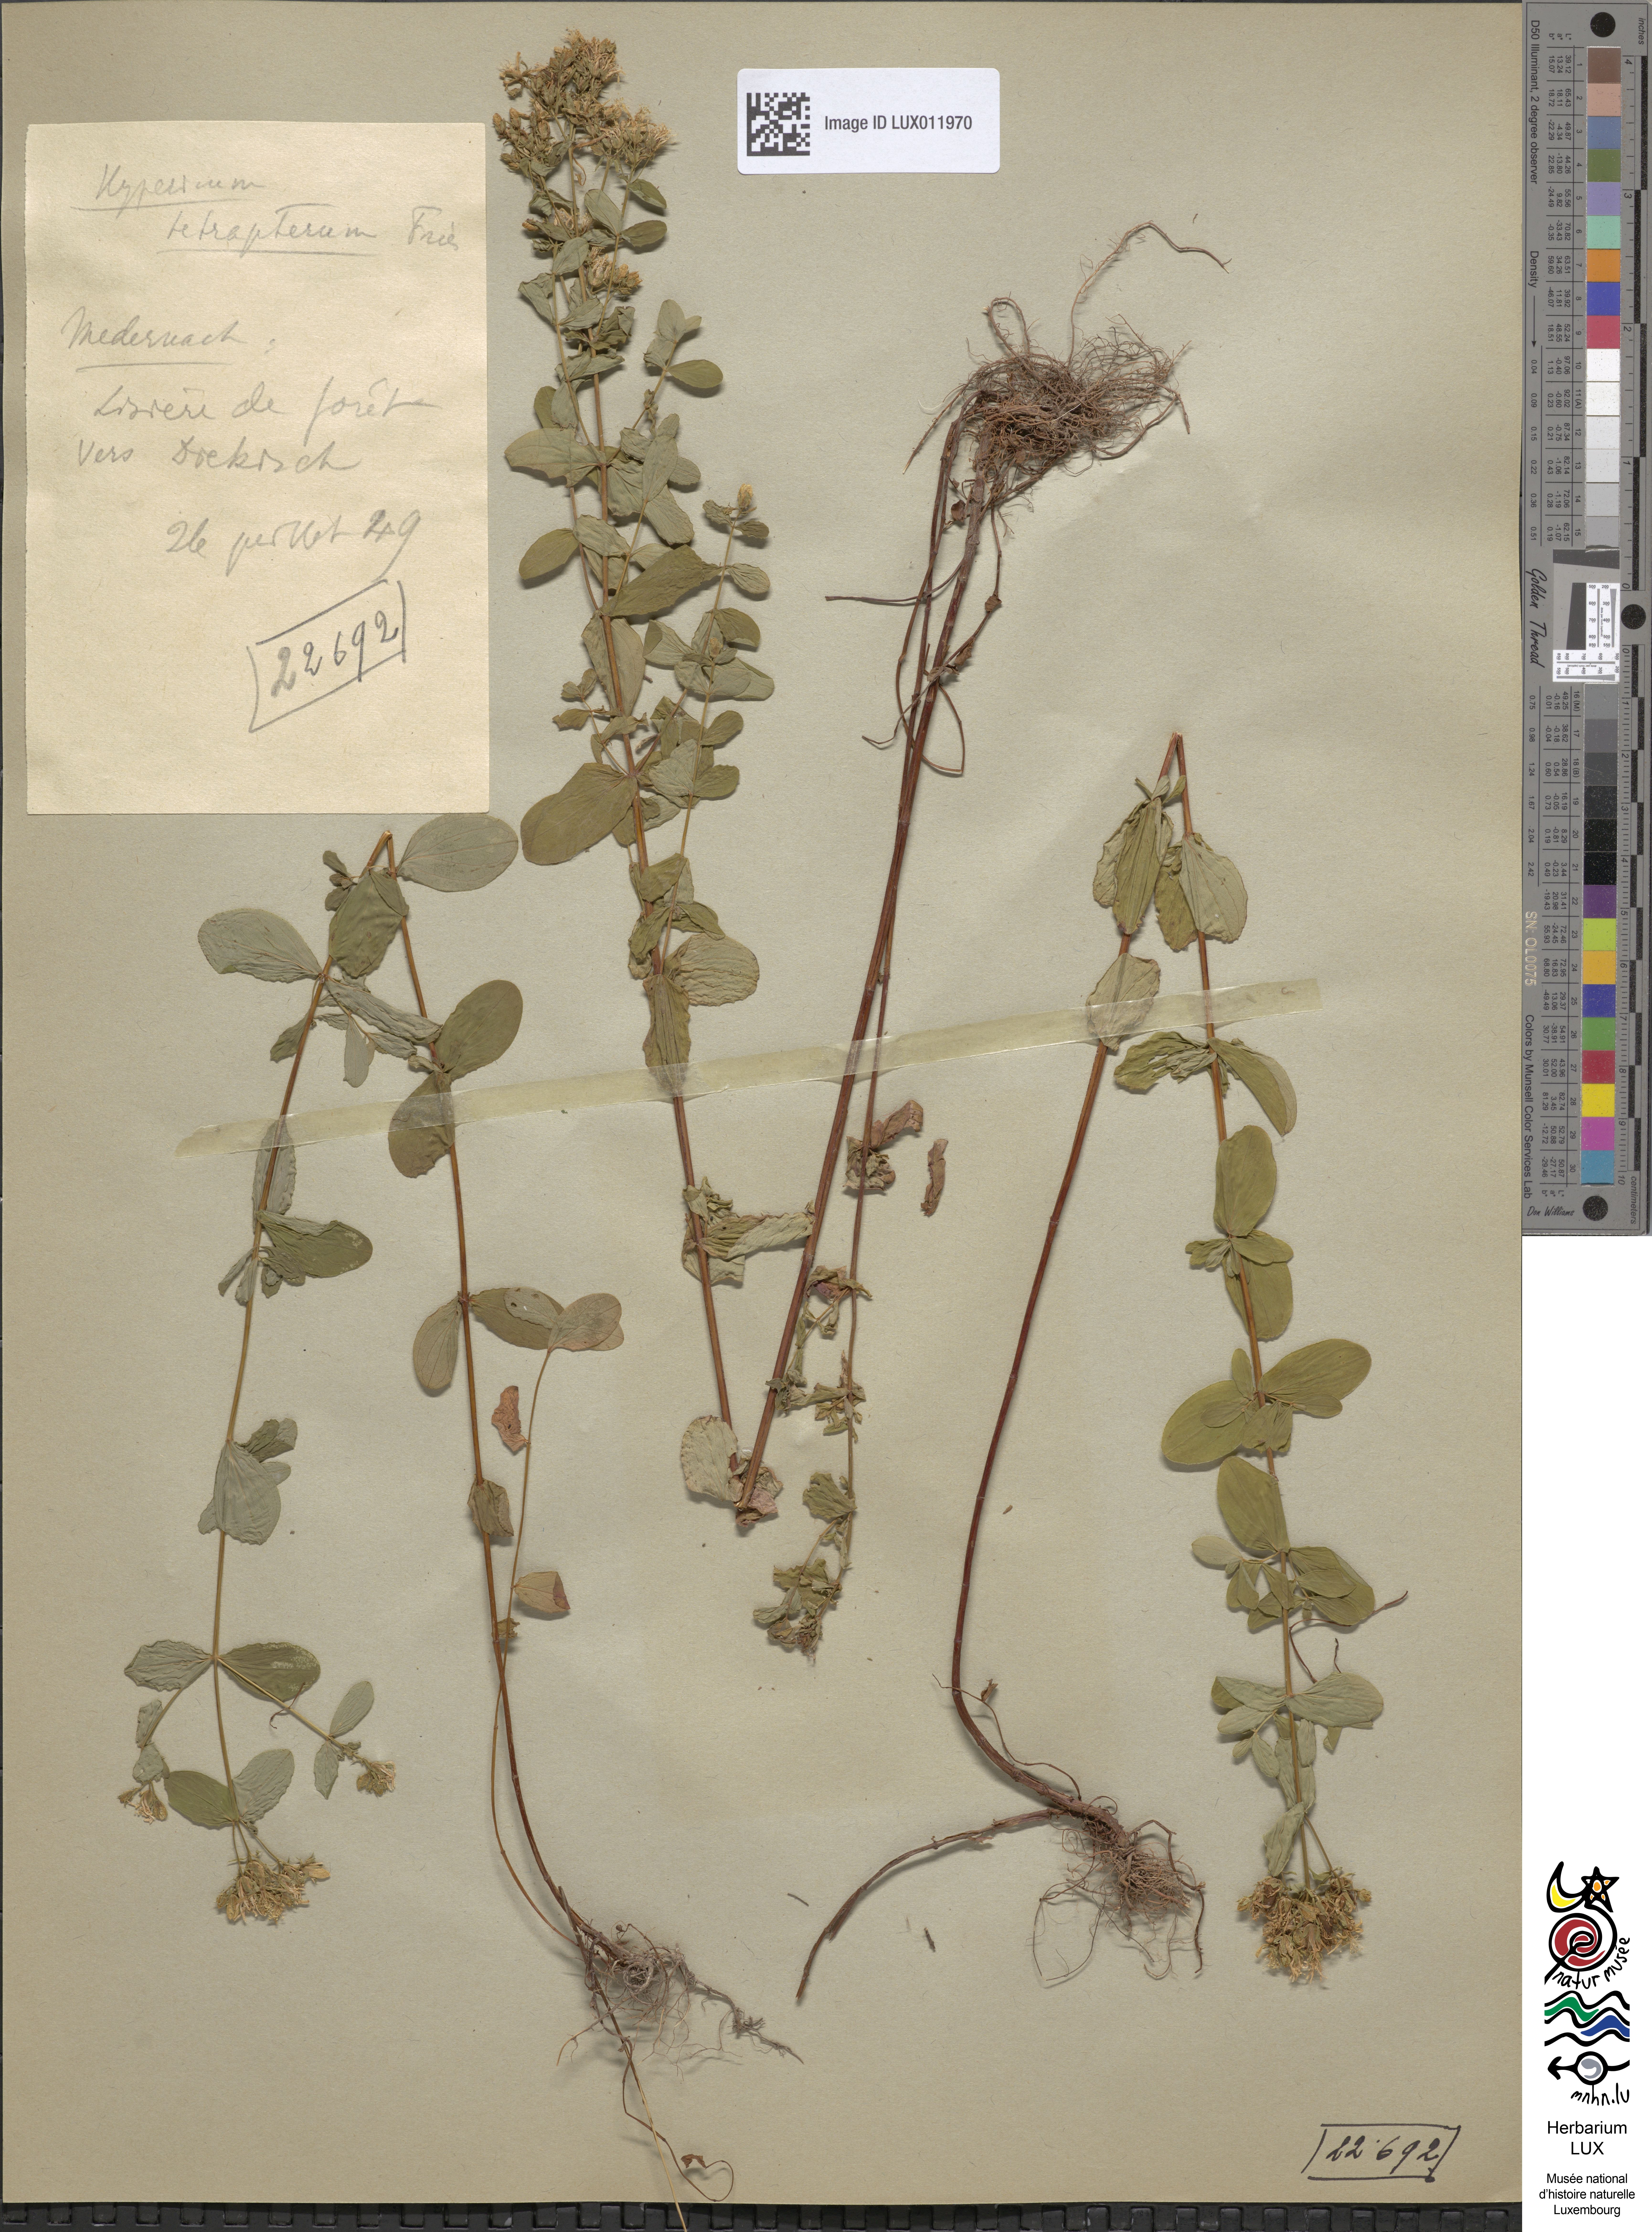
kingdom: Plantae
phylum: Tracheophyta
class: Magnoliopsida
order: Malpighiales
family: Hypericaceae
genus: Hypericum
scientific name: Hypericum tetrapterum
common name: Square-stalked st. john's-wort
